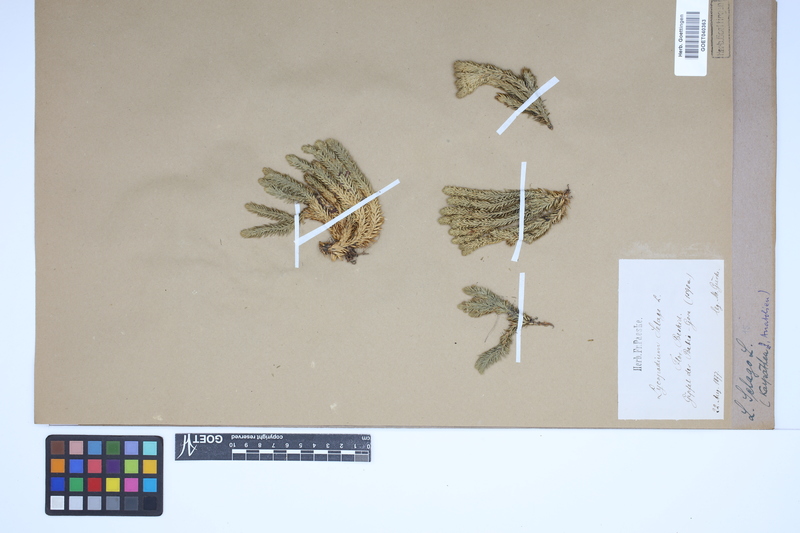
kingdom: Plantae
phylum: Tracheophyta
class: Lycopodiopsida
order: Lycopodiales
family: Lycopodiaceae
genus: Huperzia
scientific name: Huperzia selago
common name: Northern firmoss
